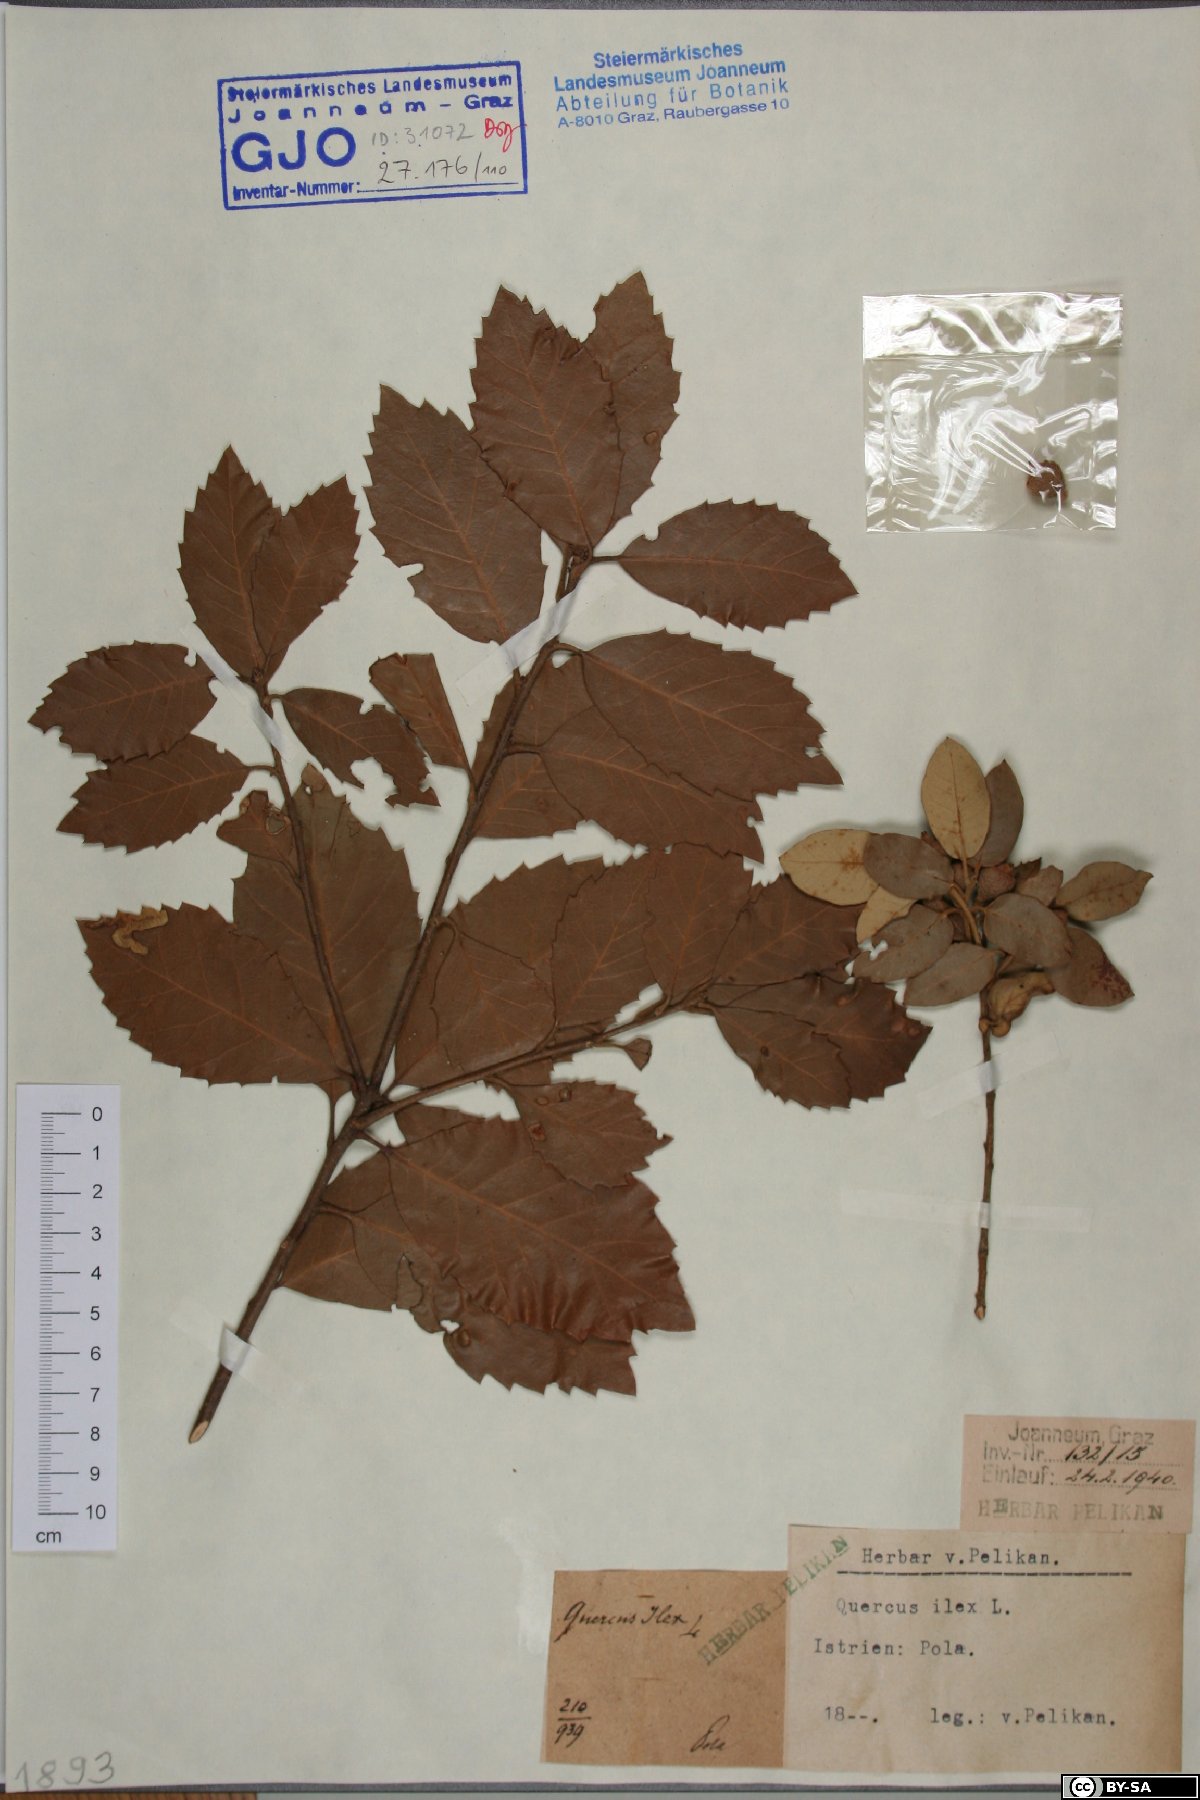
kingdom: Plantae
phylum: Tracheophyta
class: Magnoliopsida
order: Fagales
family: Fagaceae
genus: Quercus
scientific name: Quercus ilex
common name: Evergreen oak
